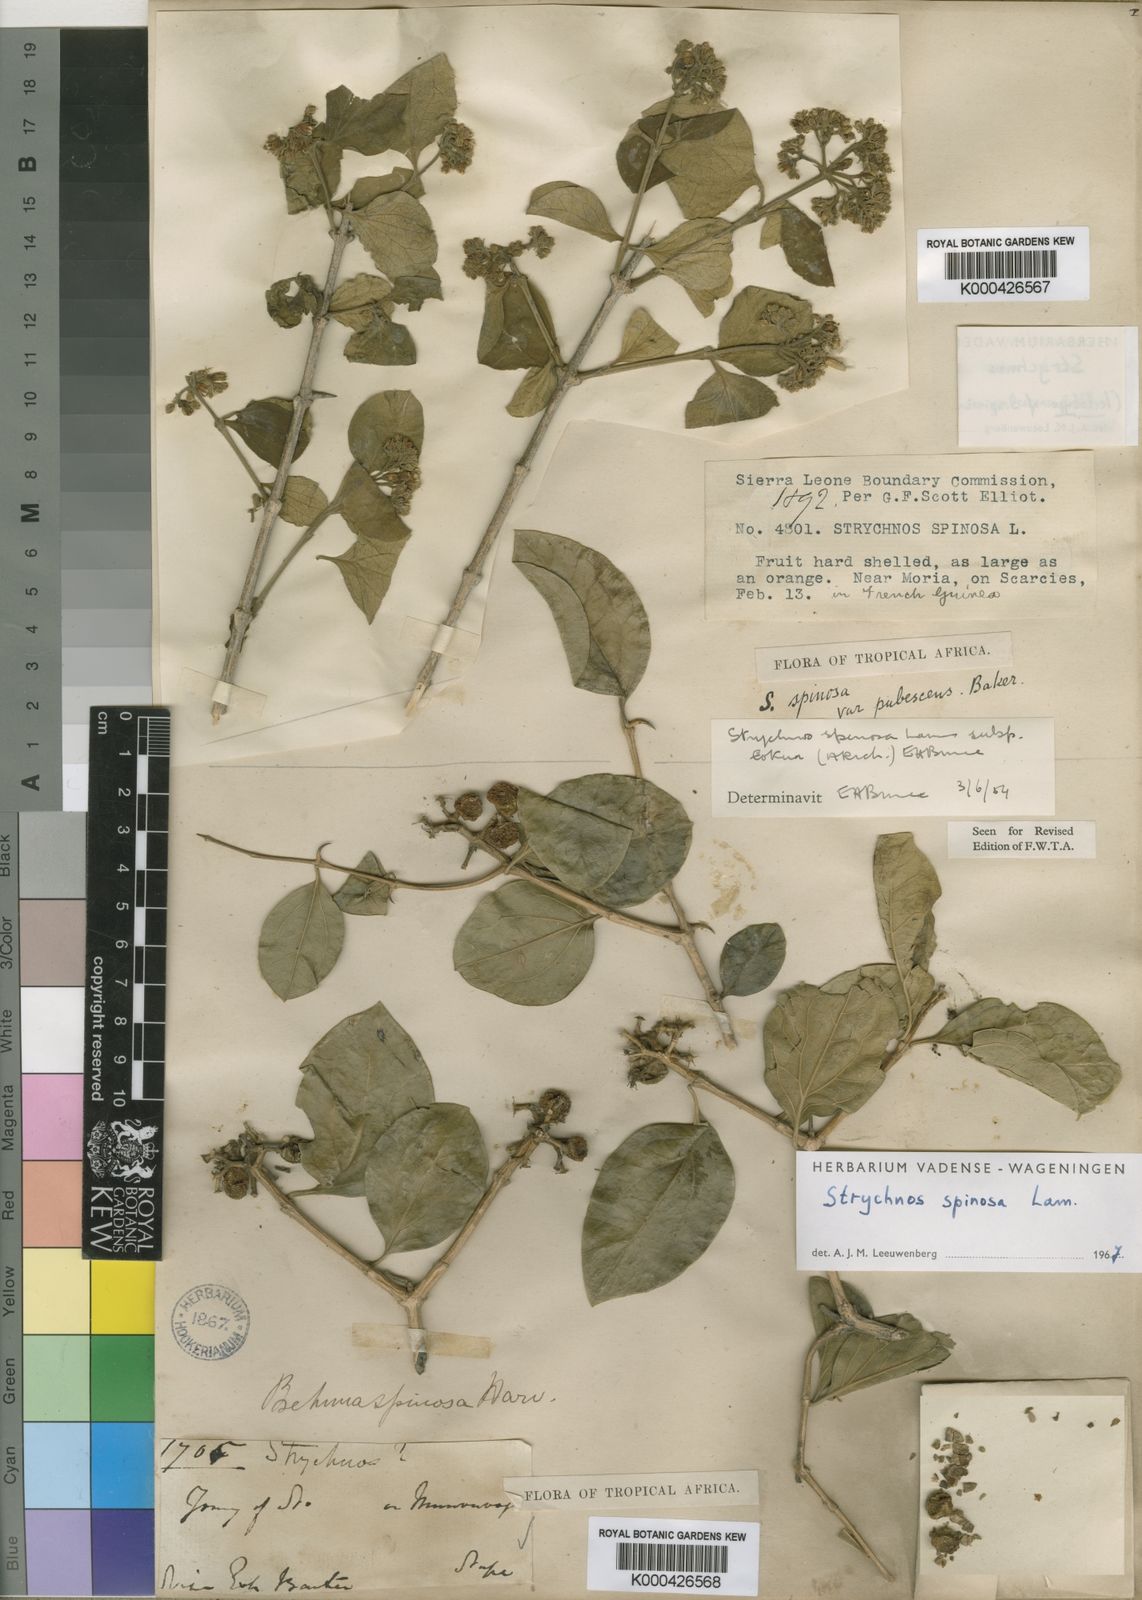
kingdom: Plantae
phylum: Tracheophyta
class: Magnoliopsida
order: Gentianales
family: Loganiaceae
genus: Strychnos
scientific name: Strychnos spinosa
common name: Natal orange
